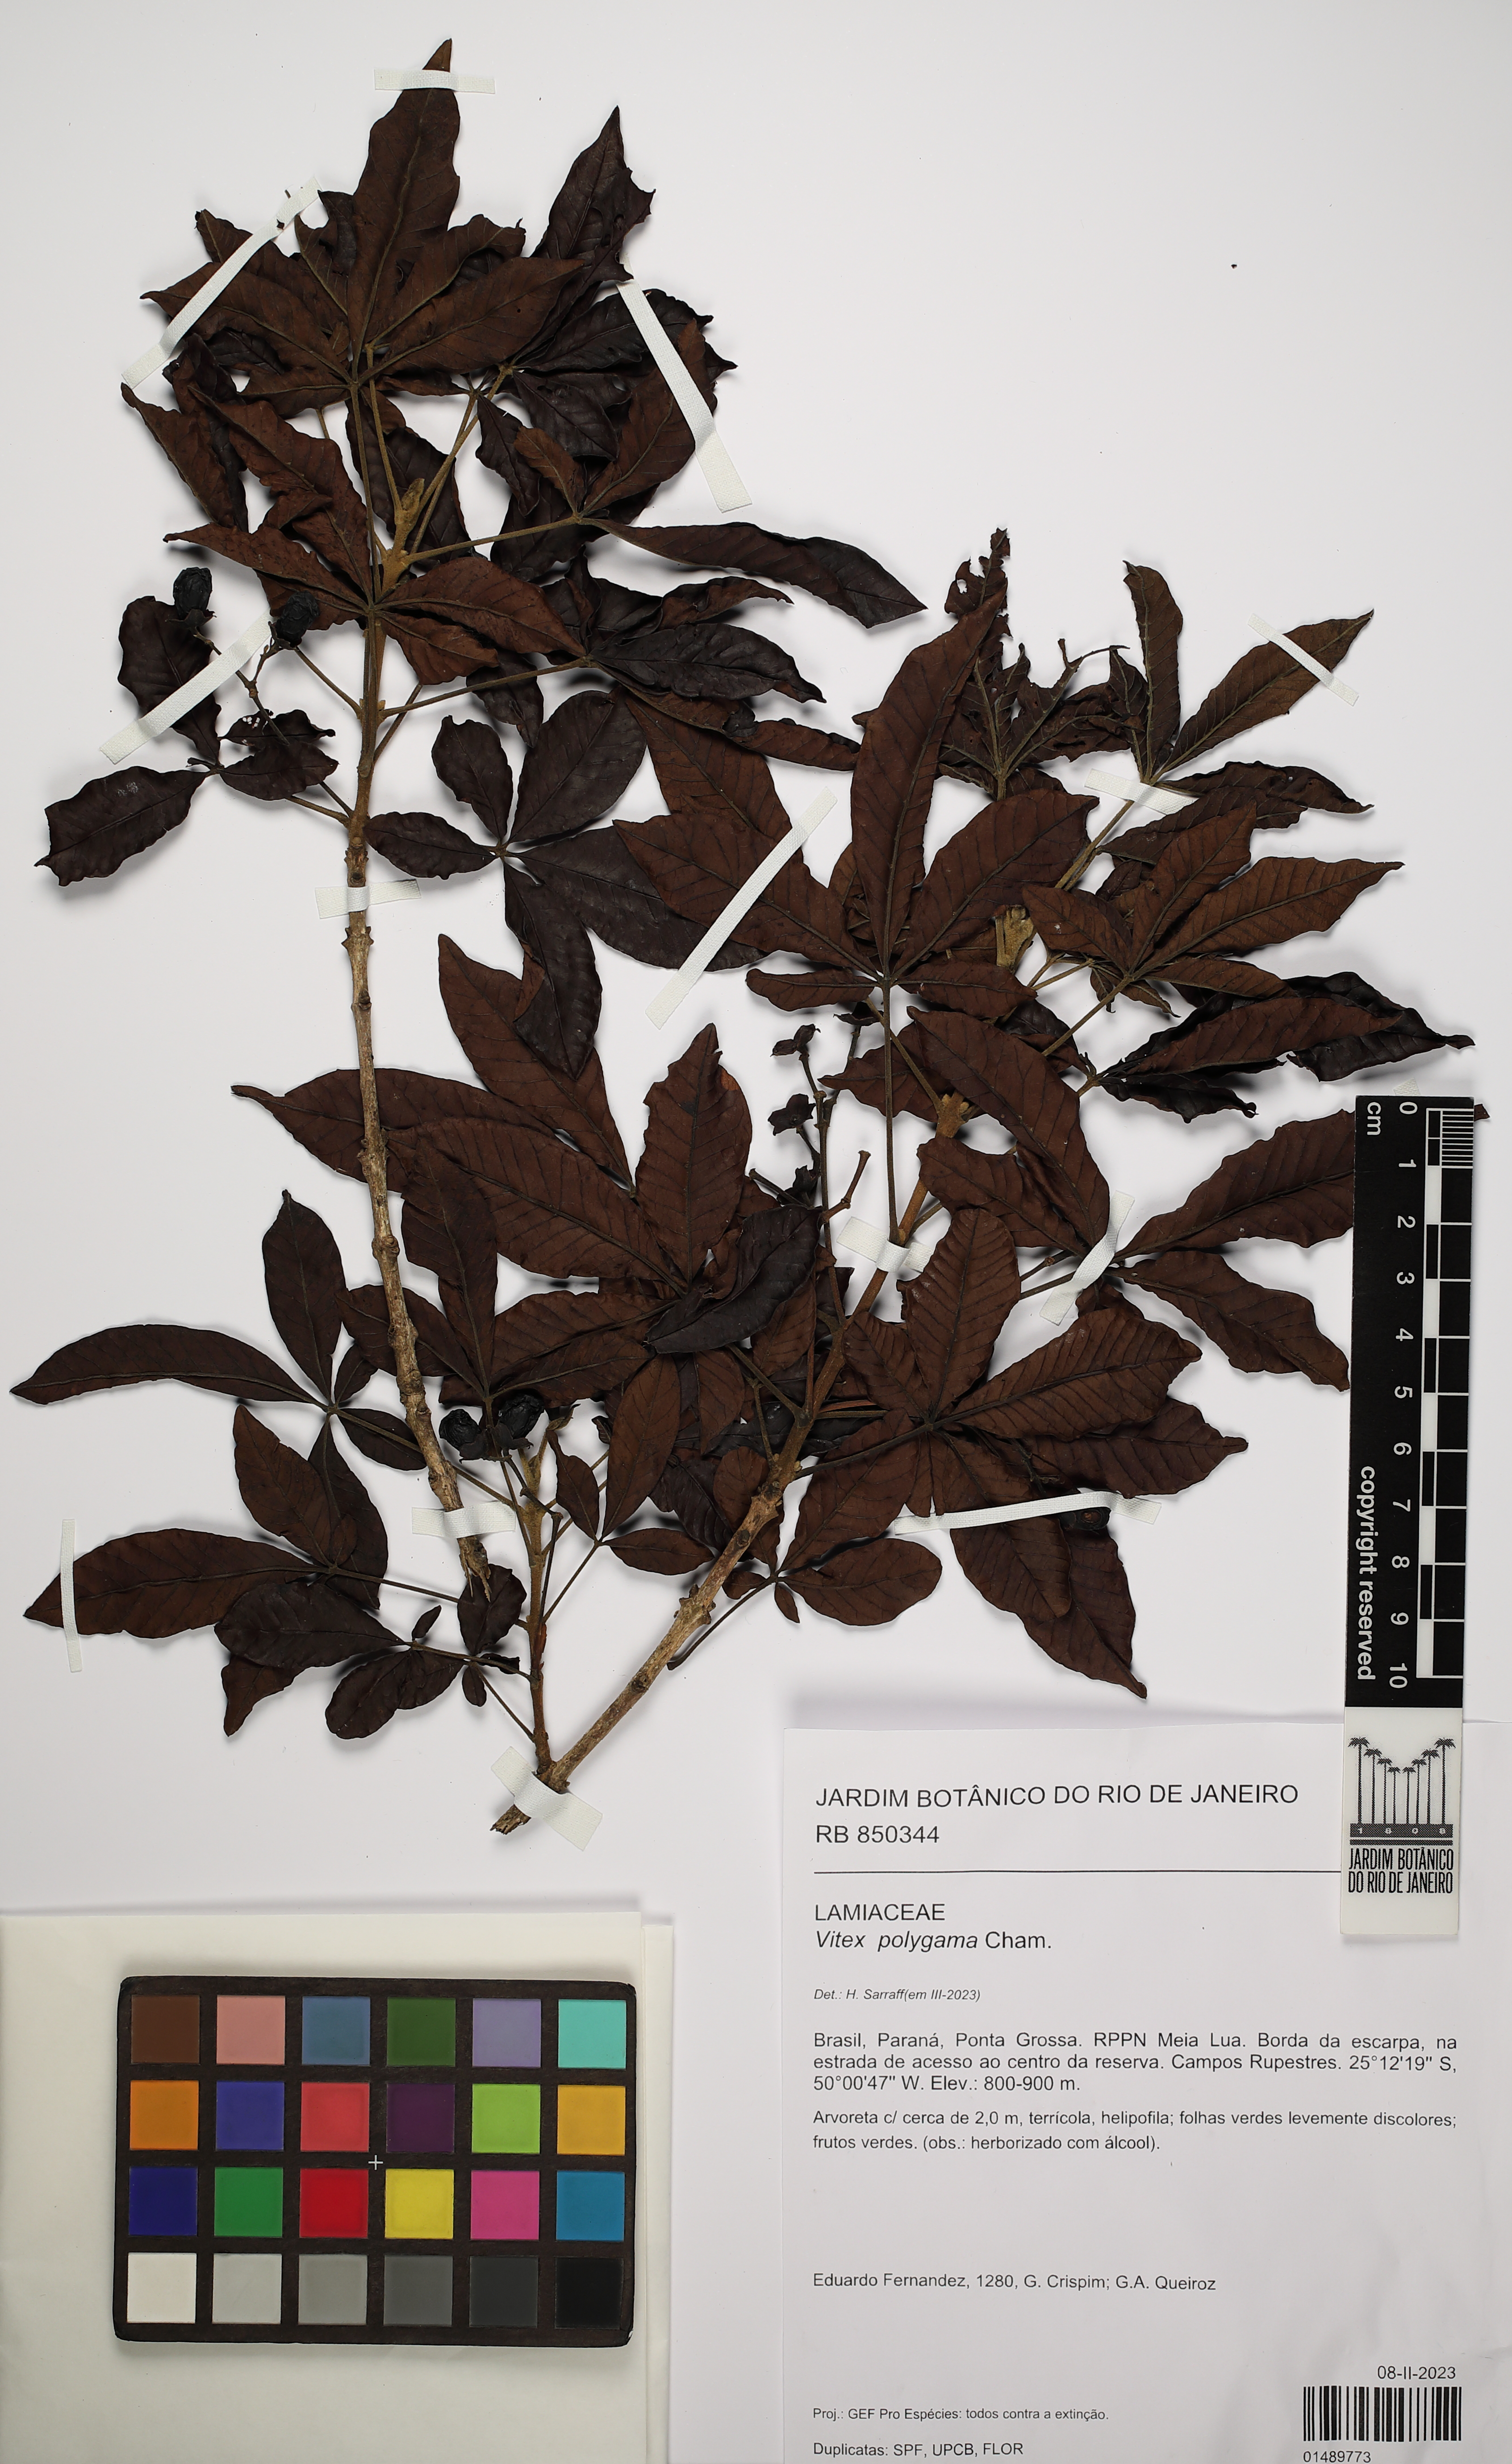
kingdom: Plantae
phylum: Tracheophyta
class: Magnoliopsida
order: Lamiales
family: Lamiaceae
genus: Vitex
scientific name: Vitex polygama
